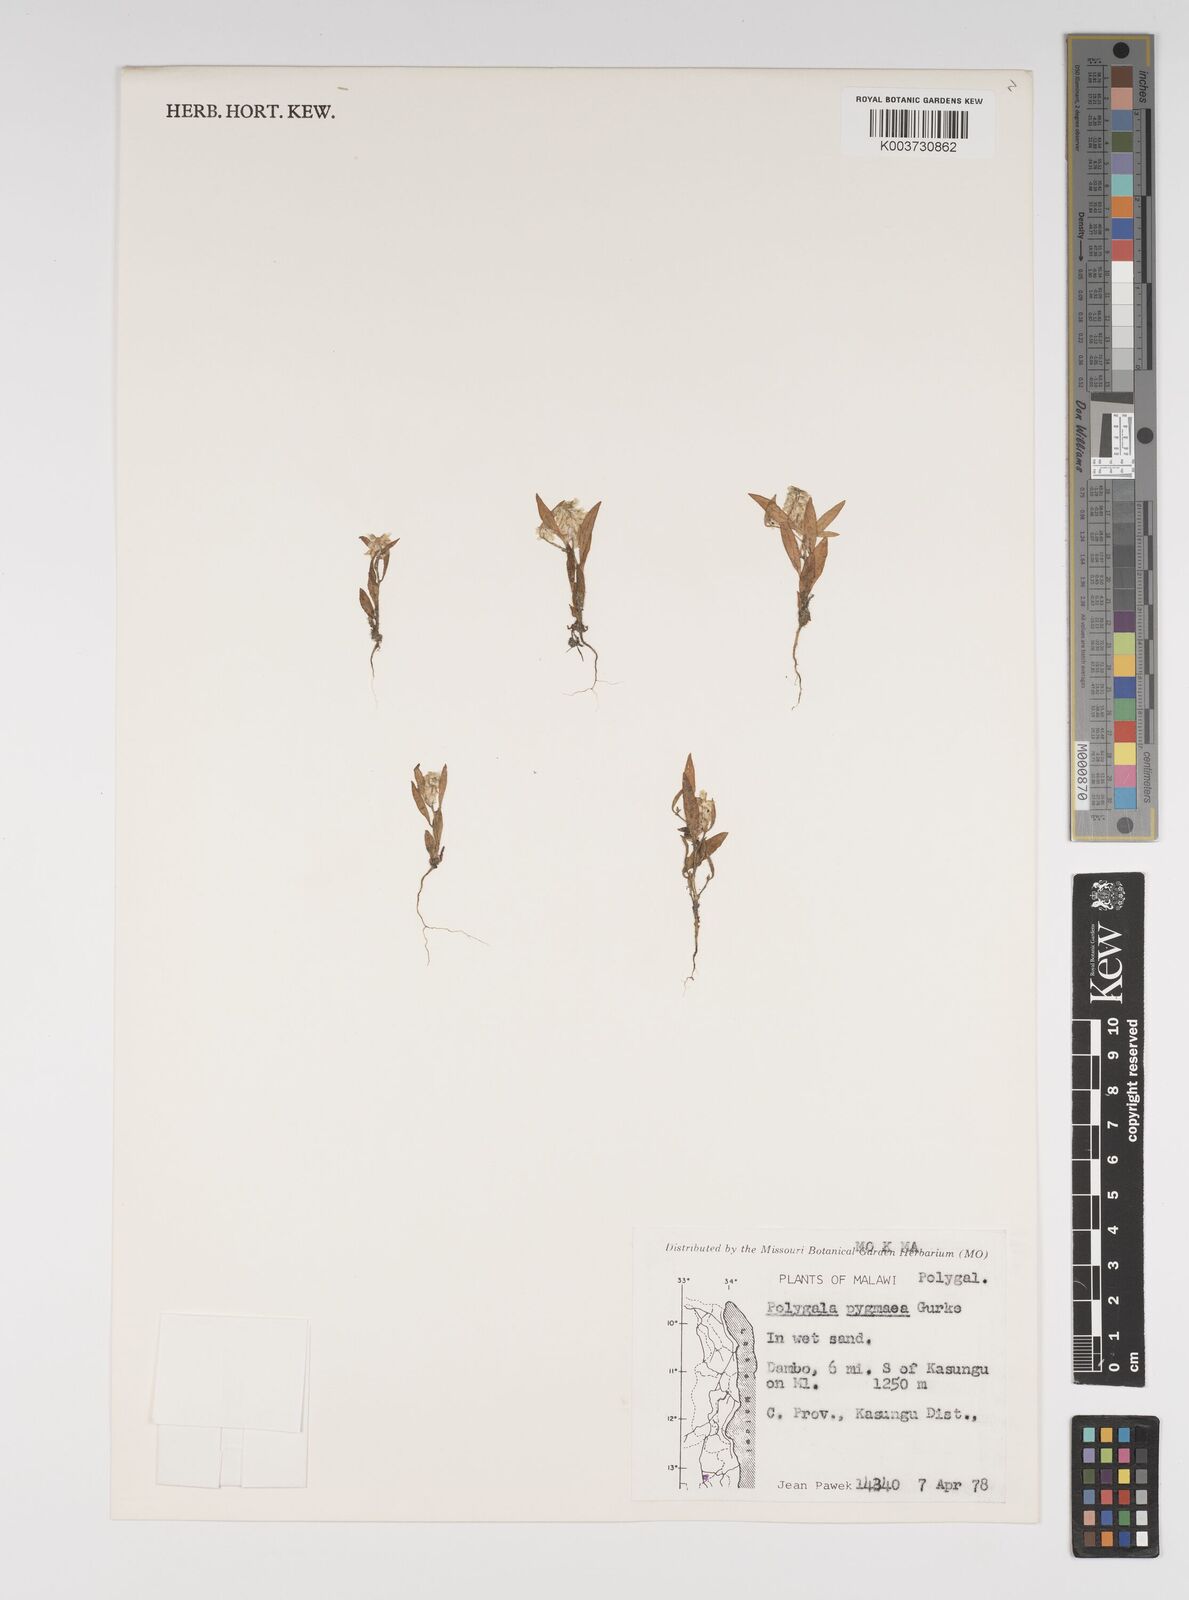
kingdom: Plantae
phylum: Tracheophyta
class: Magnoliopsida
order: Fabales
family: Polygalaceae
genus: Polygala
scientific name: Polygala welwitschii
